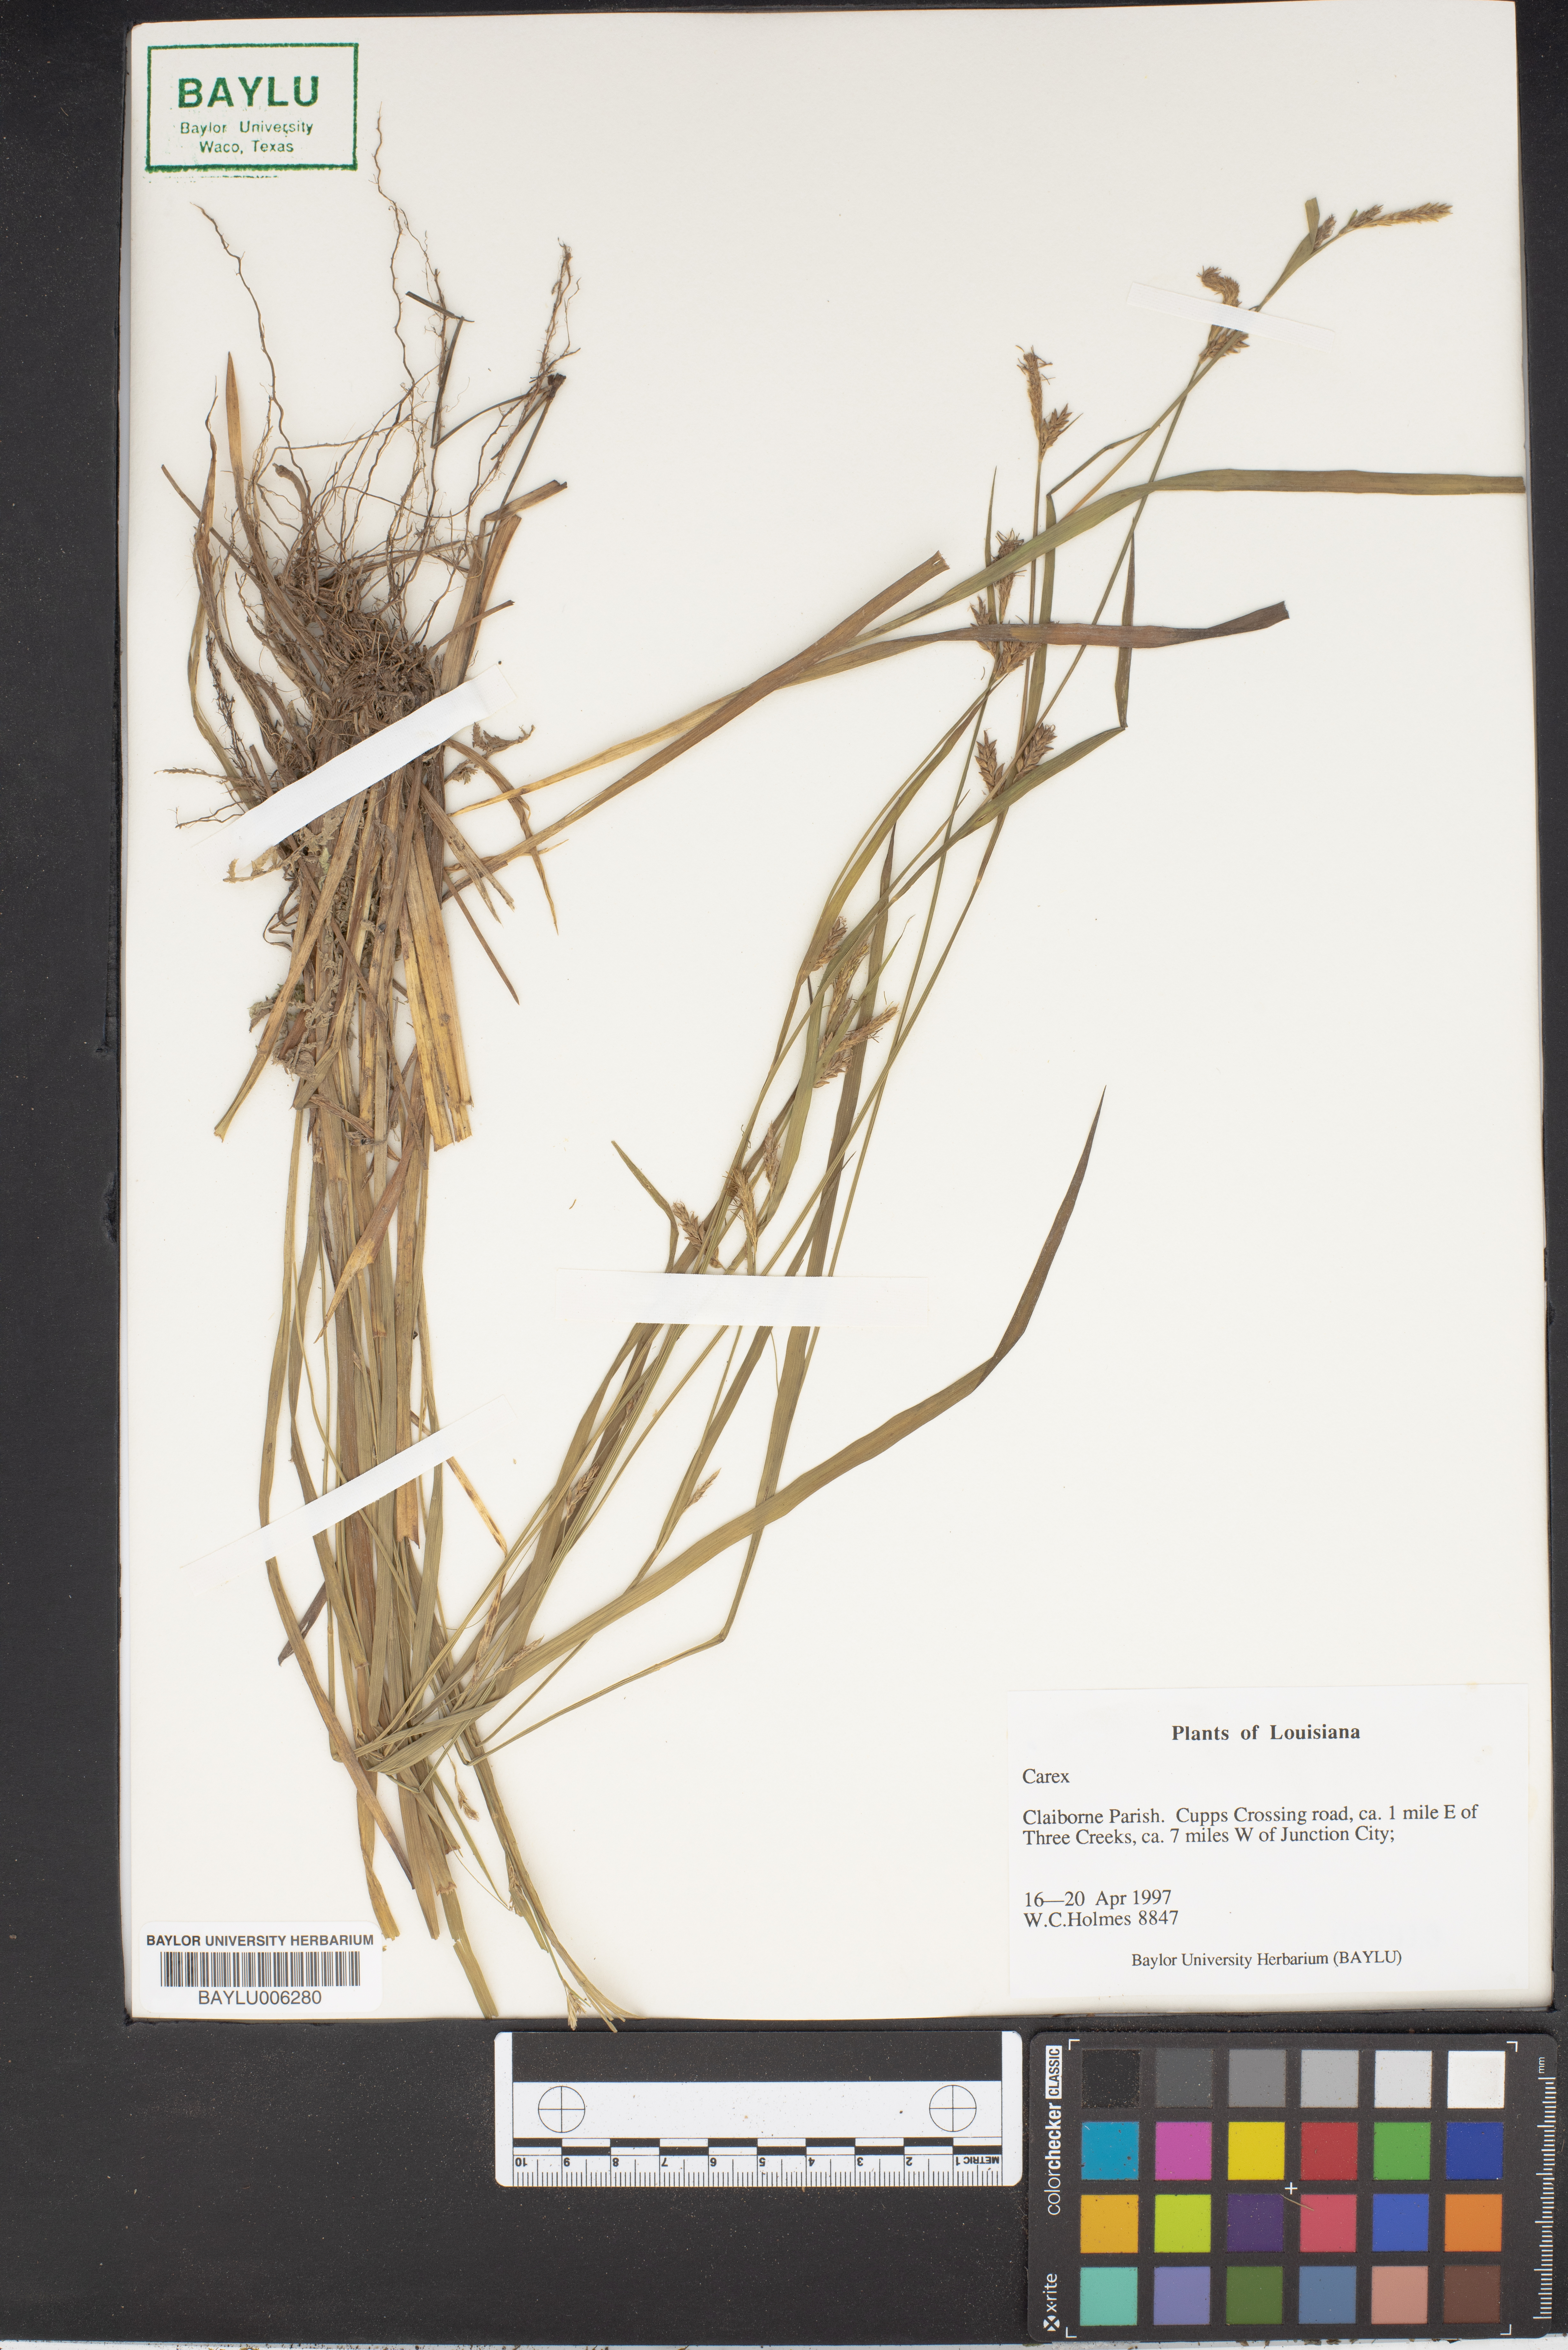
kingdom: Plantae
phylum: Tracheophyta
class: Liliopsida
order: Poales
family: Cyperaceae
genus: Carex
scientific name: Carex
